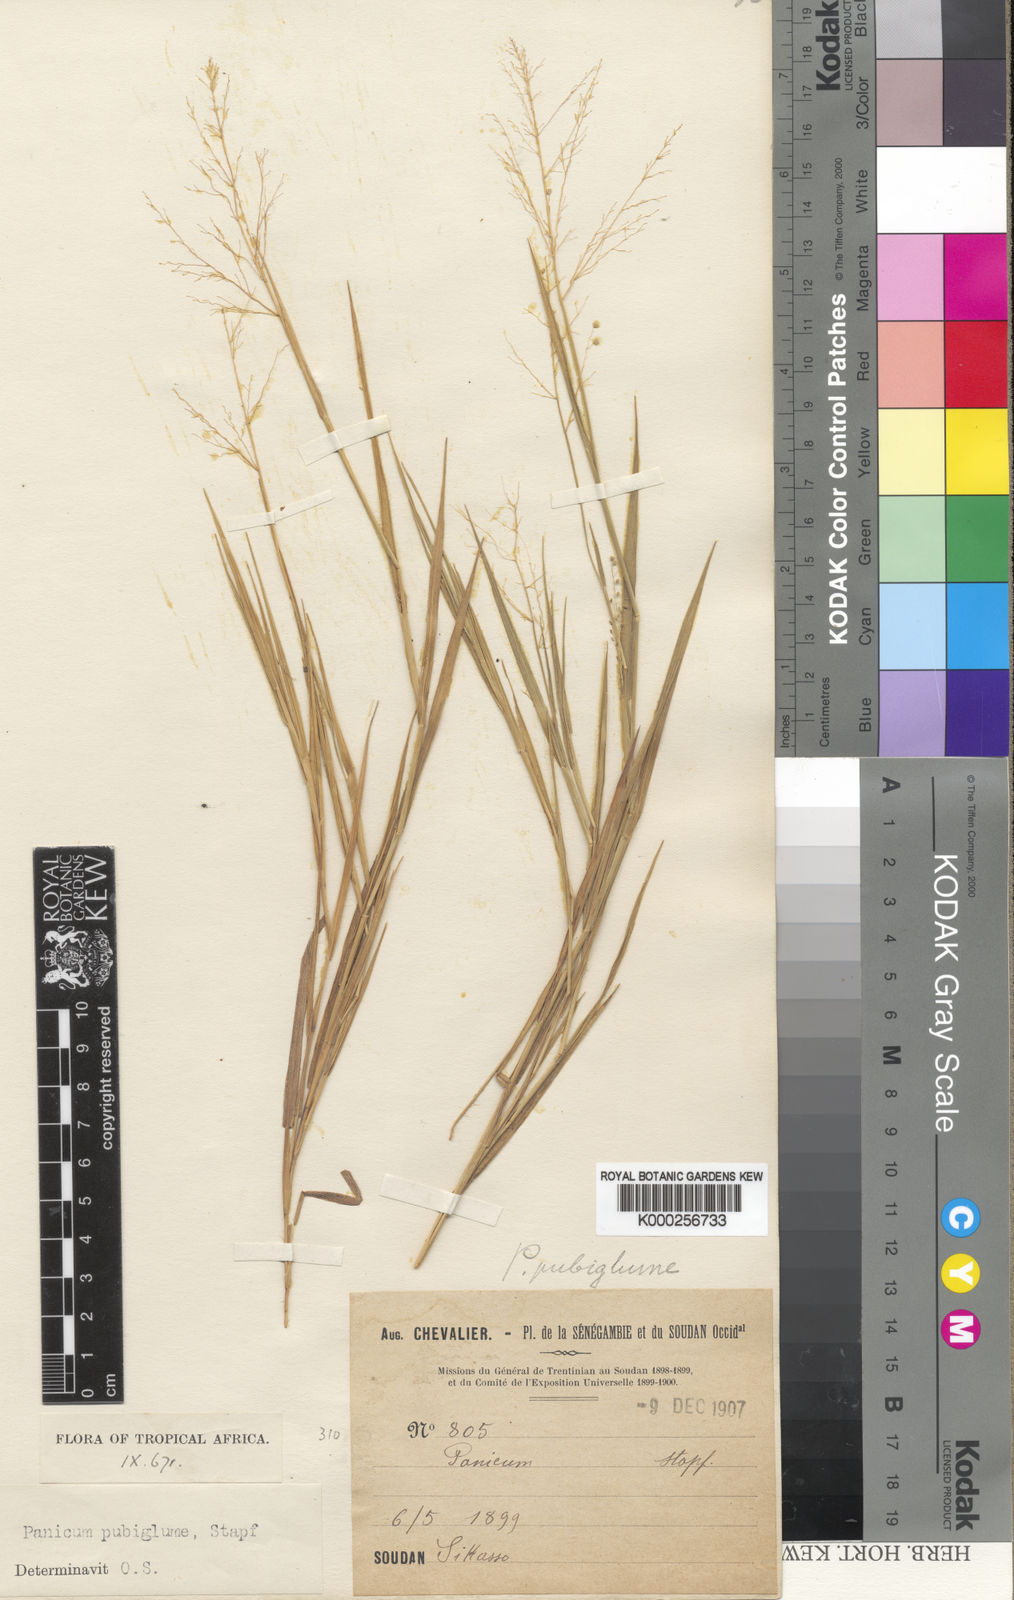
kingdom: Plantae
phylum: Tracheophyta
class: Liliopsida
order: Poales
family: Poaceae
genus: Trichanthecium
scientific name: Trichanthecium brazzavillense
